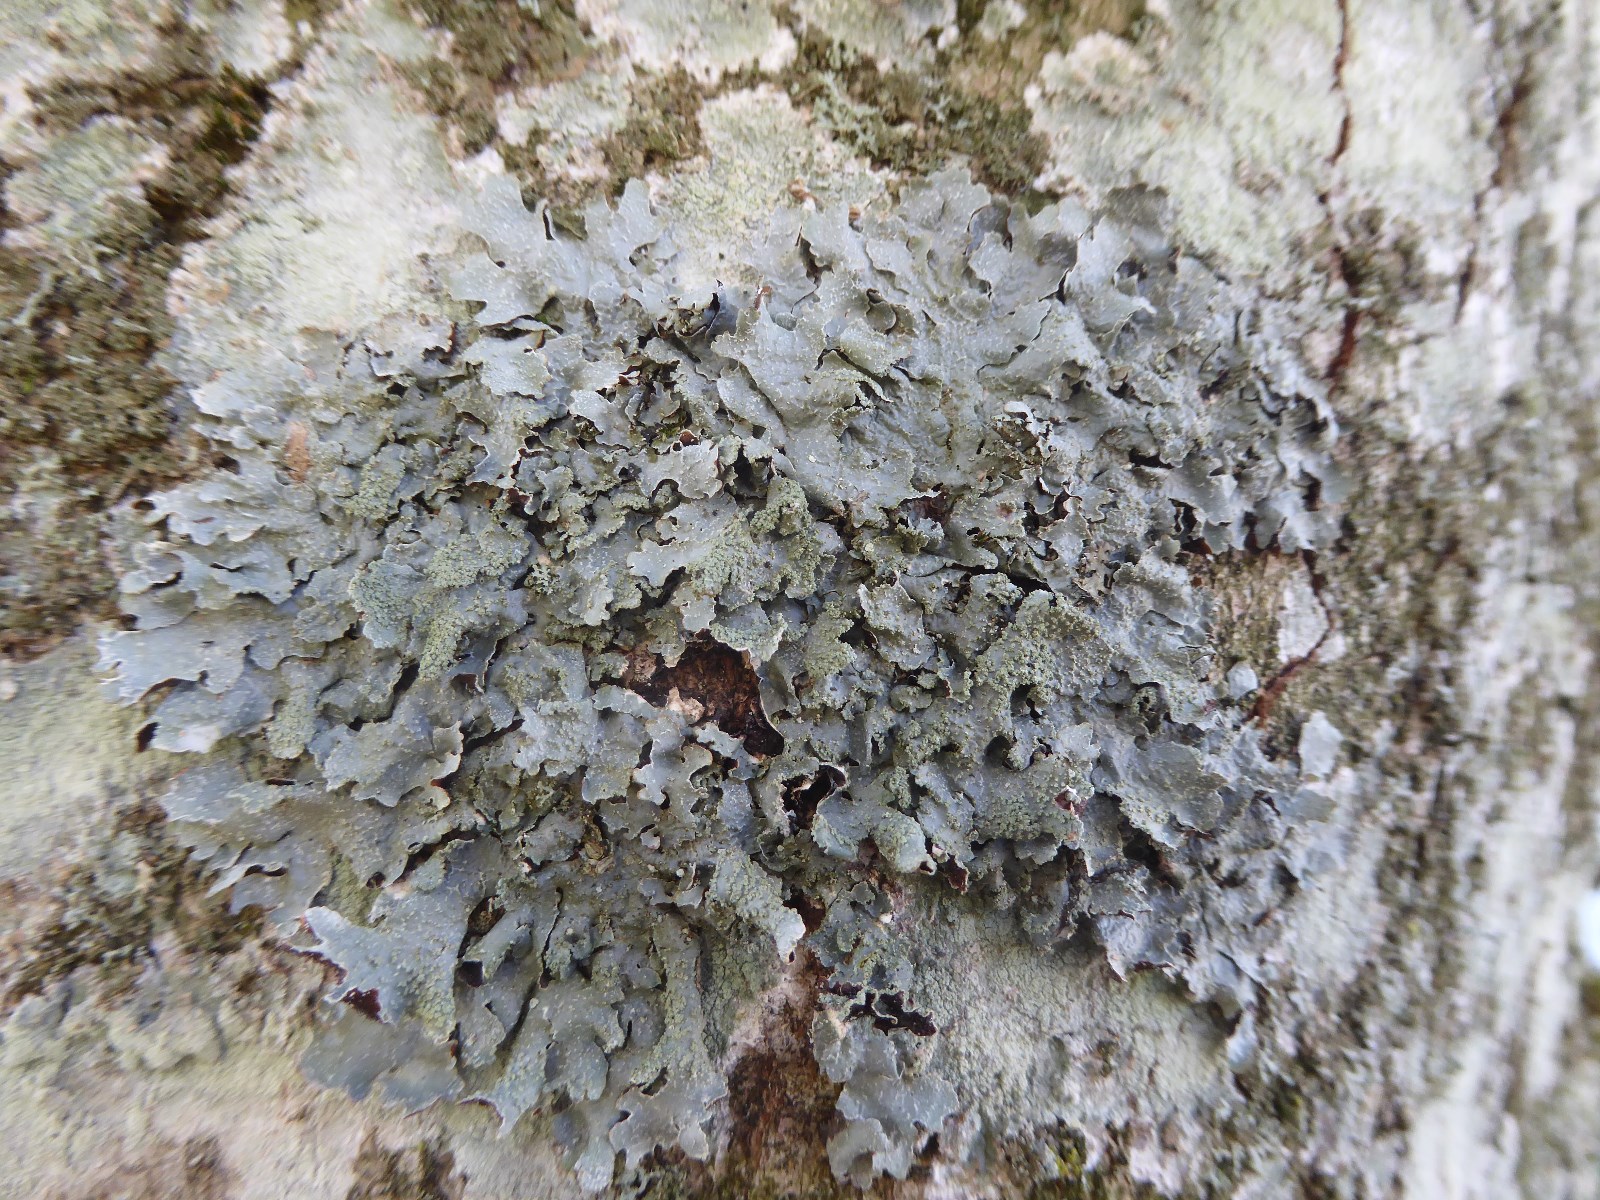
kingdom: Fungi
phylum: Ascomycota
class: Lecanoromycetes
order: Lecanorales
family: Parmeliaceae
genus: Parmelia
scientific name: Parmelia sulcata
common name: rynket skållav
